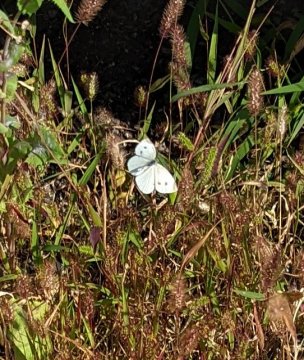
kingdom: Animalia
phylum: Arthropoda
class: Insecta
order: Lepidoptera
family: Pieridae
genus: Pieris
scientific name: Pieris rapae
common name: Cabbage White
